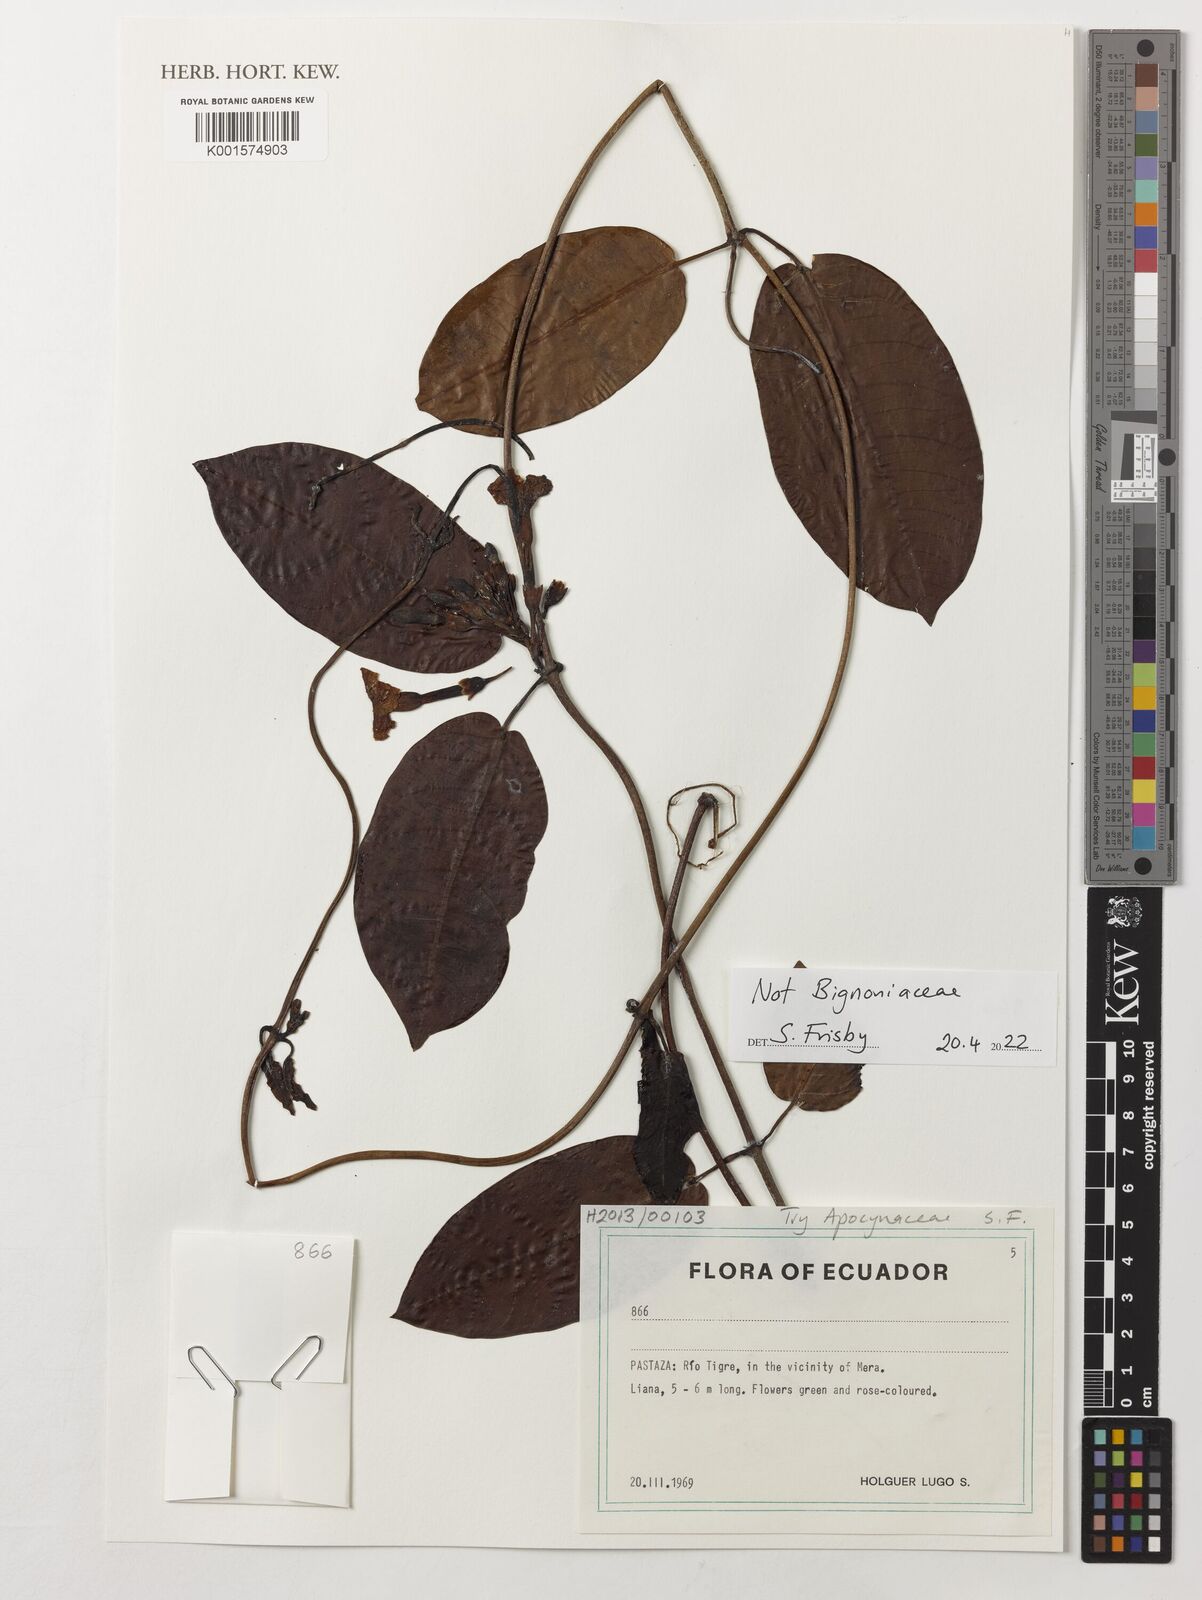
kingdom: Plantae
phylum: Tracheophyta
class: Magnoliopsida
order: Gentianales
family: Apocynaceae
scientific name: Apocynaceae
